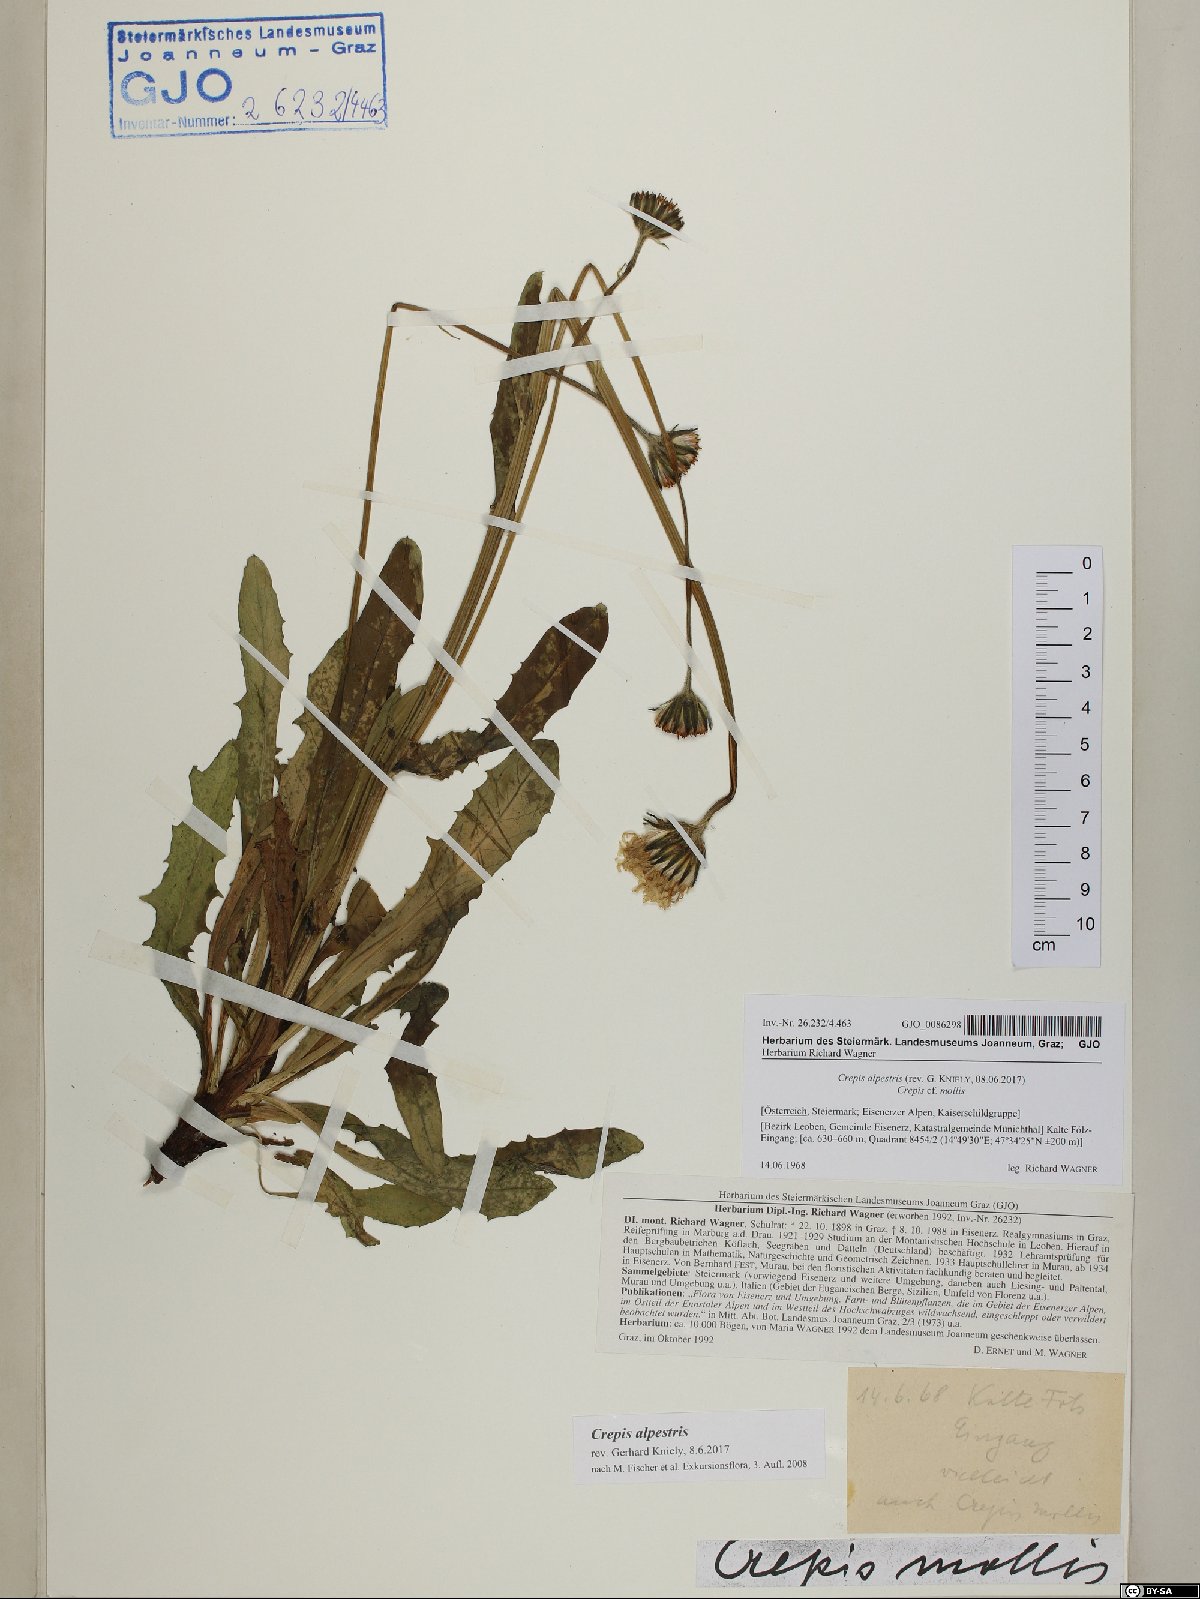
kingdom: Plantae
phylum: Tracheophyta
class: Magnoliopsida
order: Asterales
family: Asteraceae
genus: Crepis
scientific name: Crepis alpestris
